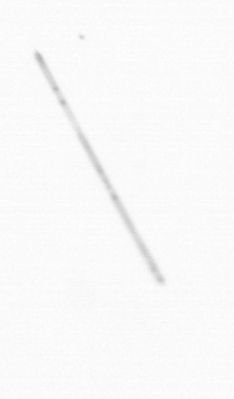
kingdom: Chromista
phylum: Ochrophyta
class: Bacillariophyceae
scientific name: Bacillariophyceae
